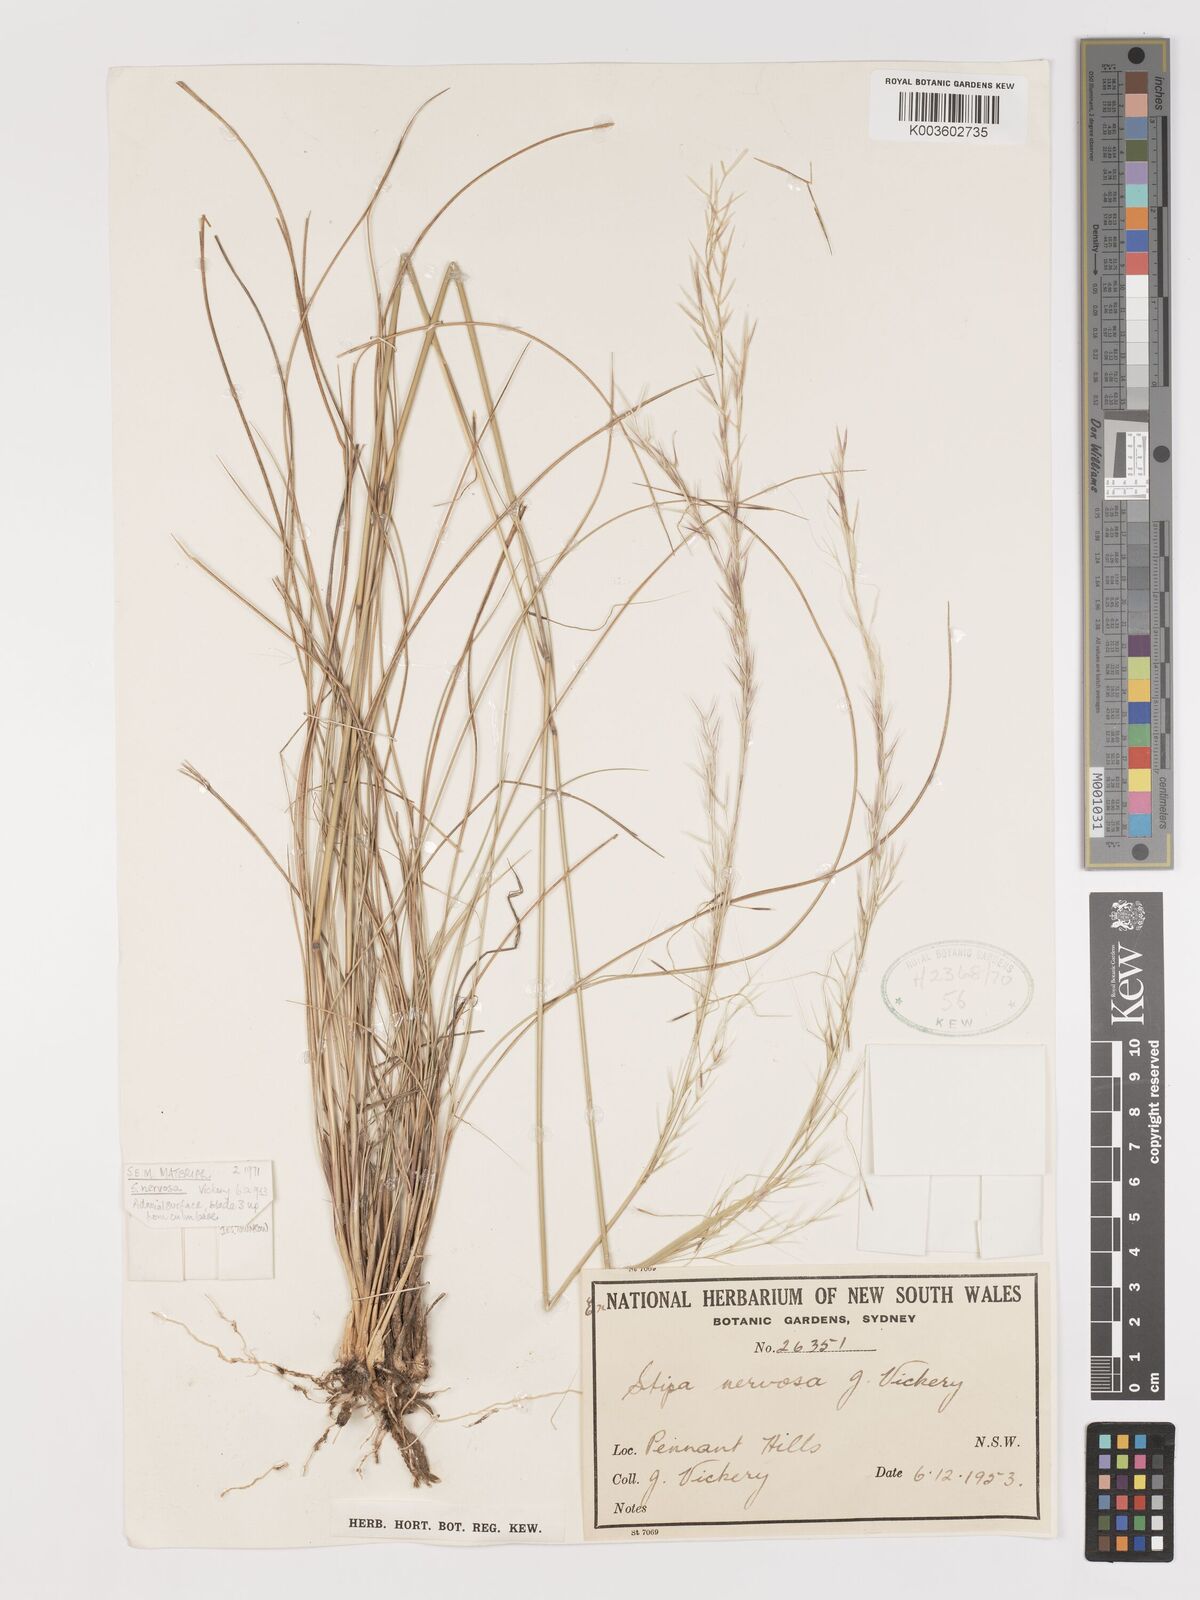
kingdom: Plantae
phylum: Tracheophyta
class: Liliopsida
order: Poales
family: Poaceae
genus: Austrostipa
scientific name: Austrostipa rudis
